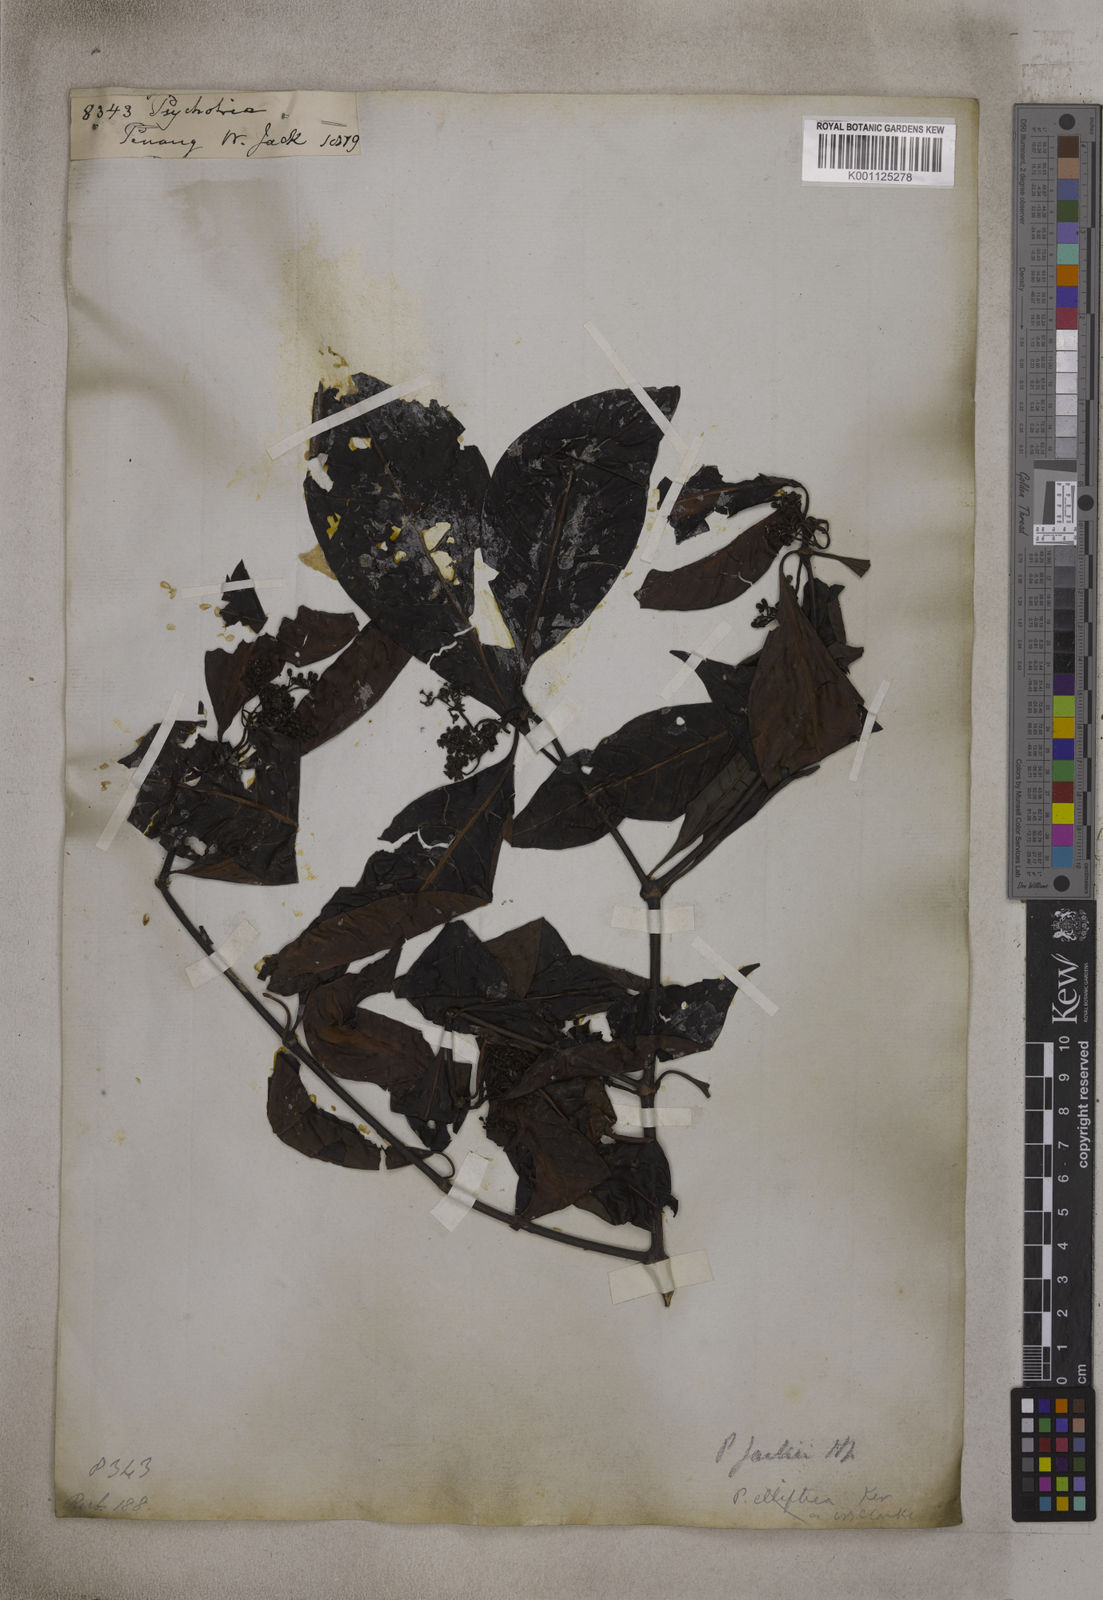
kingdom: Plantae
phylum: Tracheophyta
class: Magnoliopsida
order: Gentianales
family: Rubiaceae
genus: Psychotria
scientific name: Psychotria
